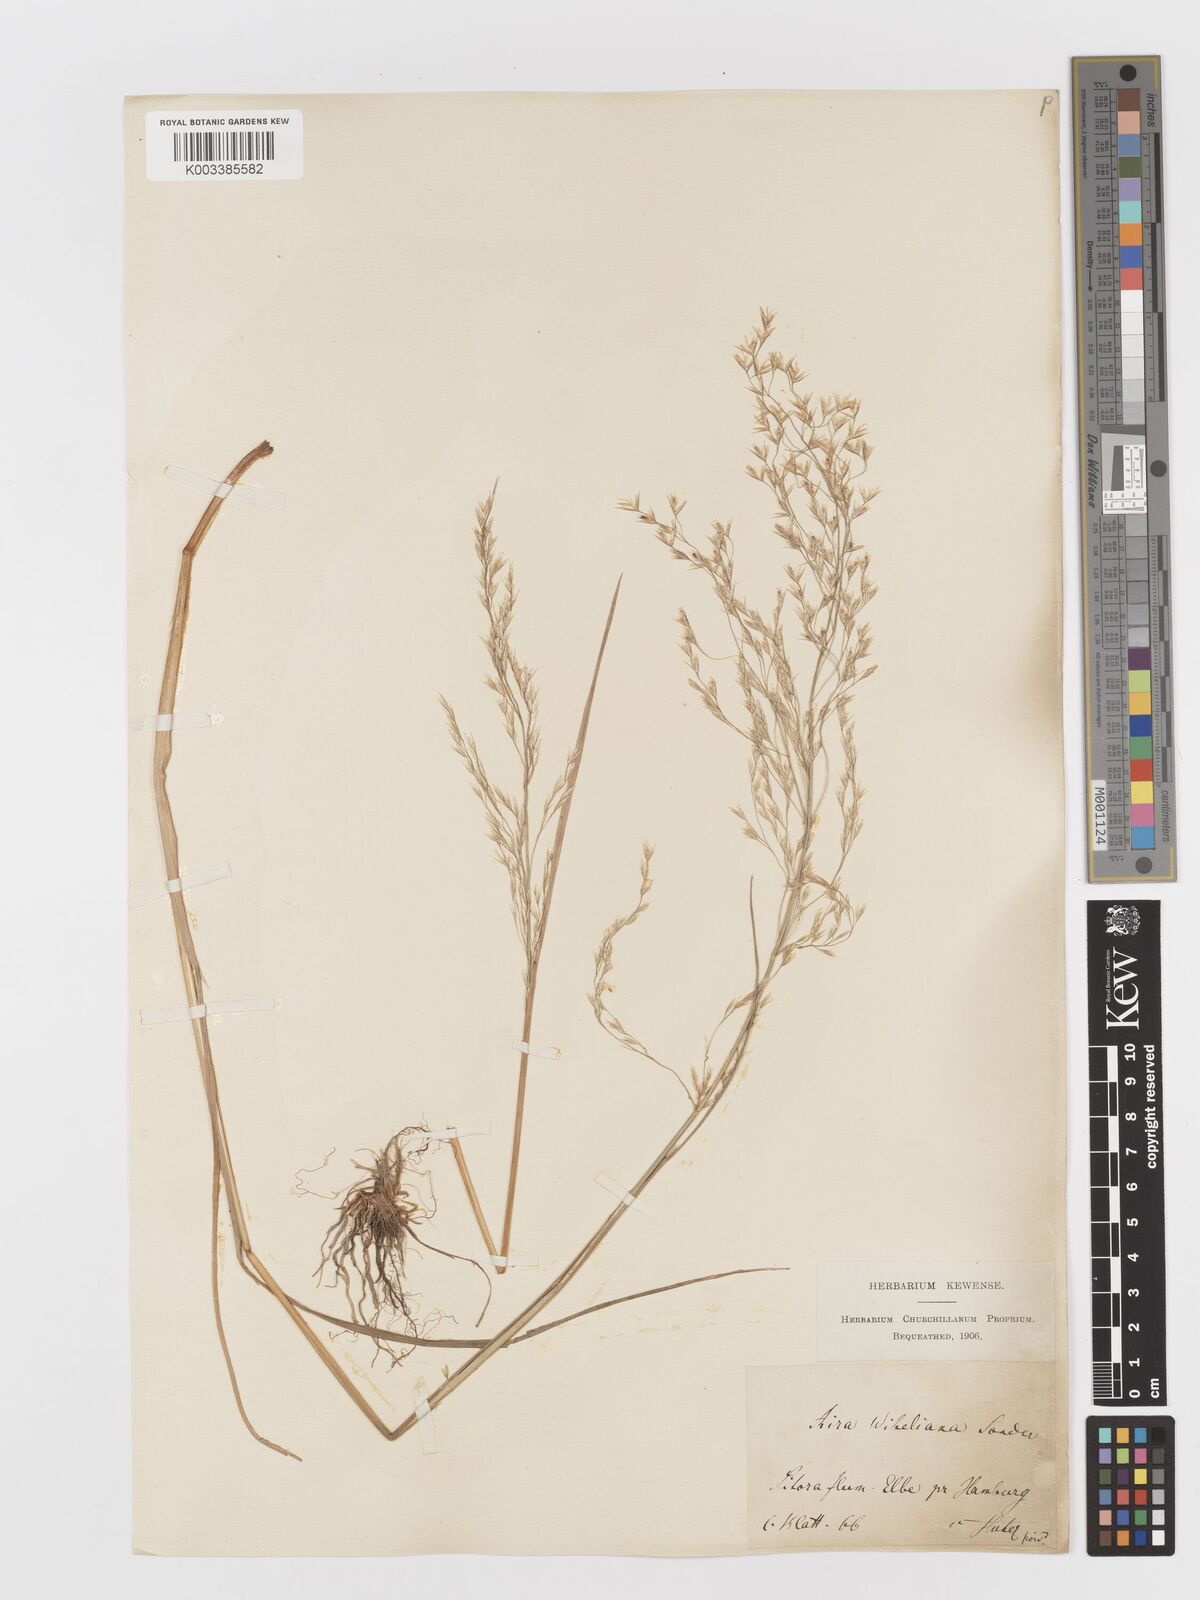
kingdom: Plantae
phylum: Tracheophyta
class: Liliopsida
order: Poales
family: Poaceae
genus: Deschampsia
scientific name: Deschampsia cespitosa
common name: Tufted hair-grass
